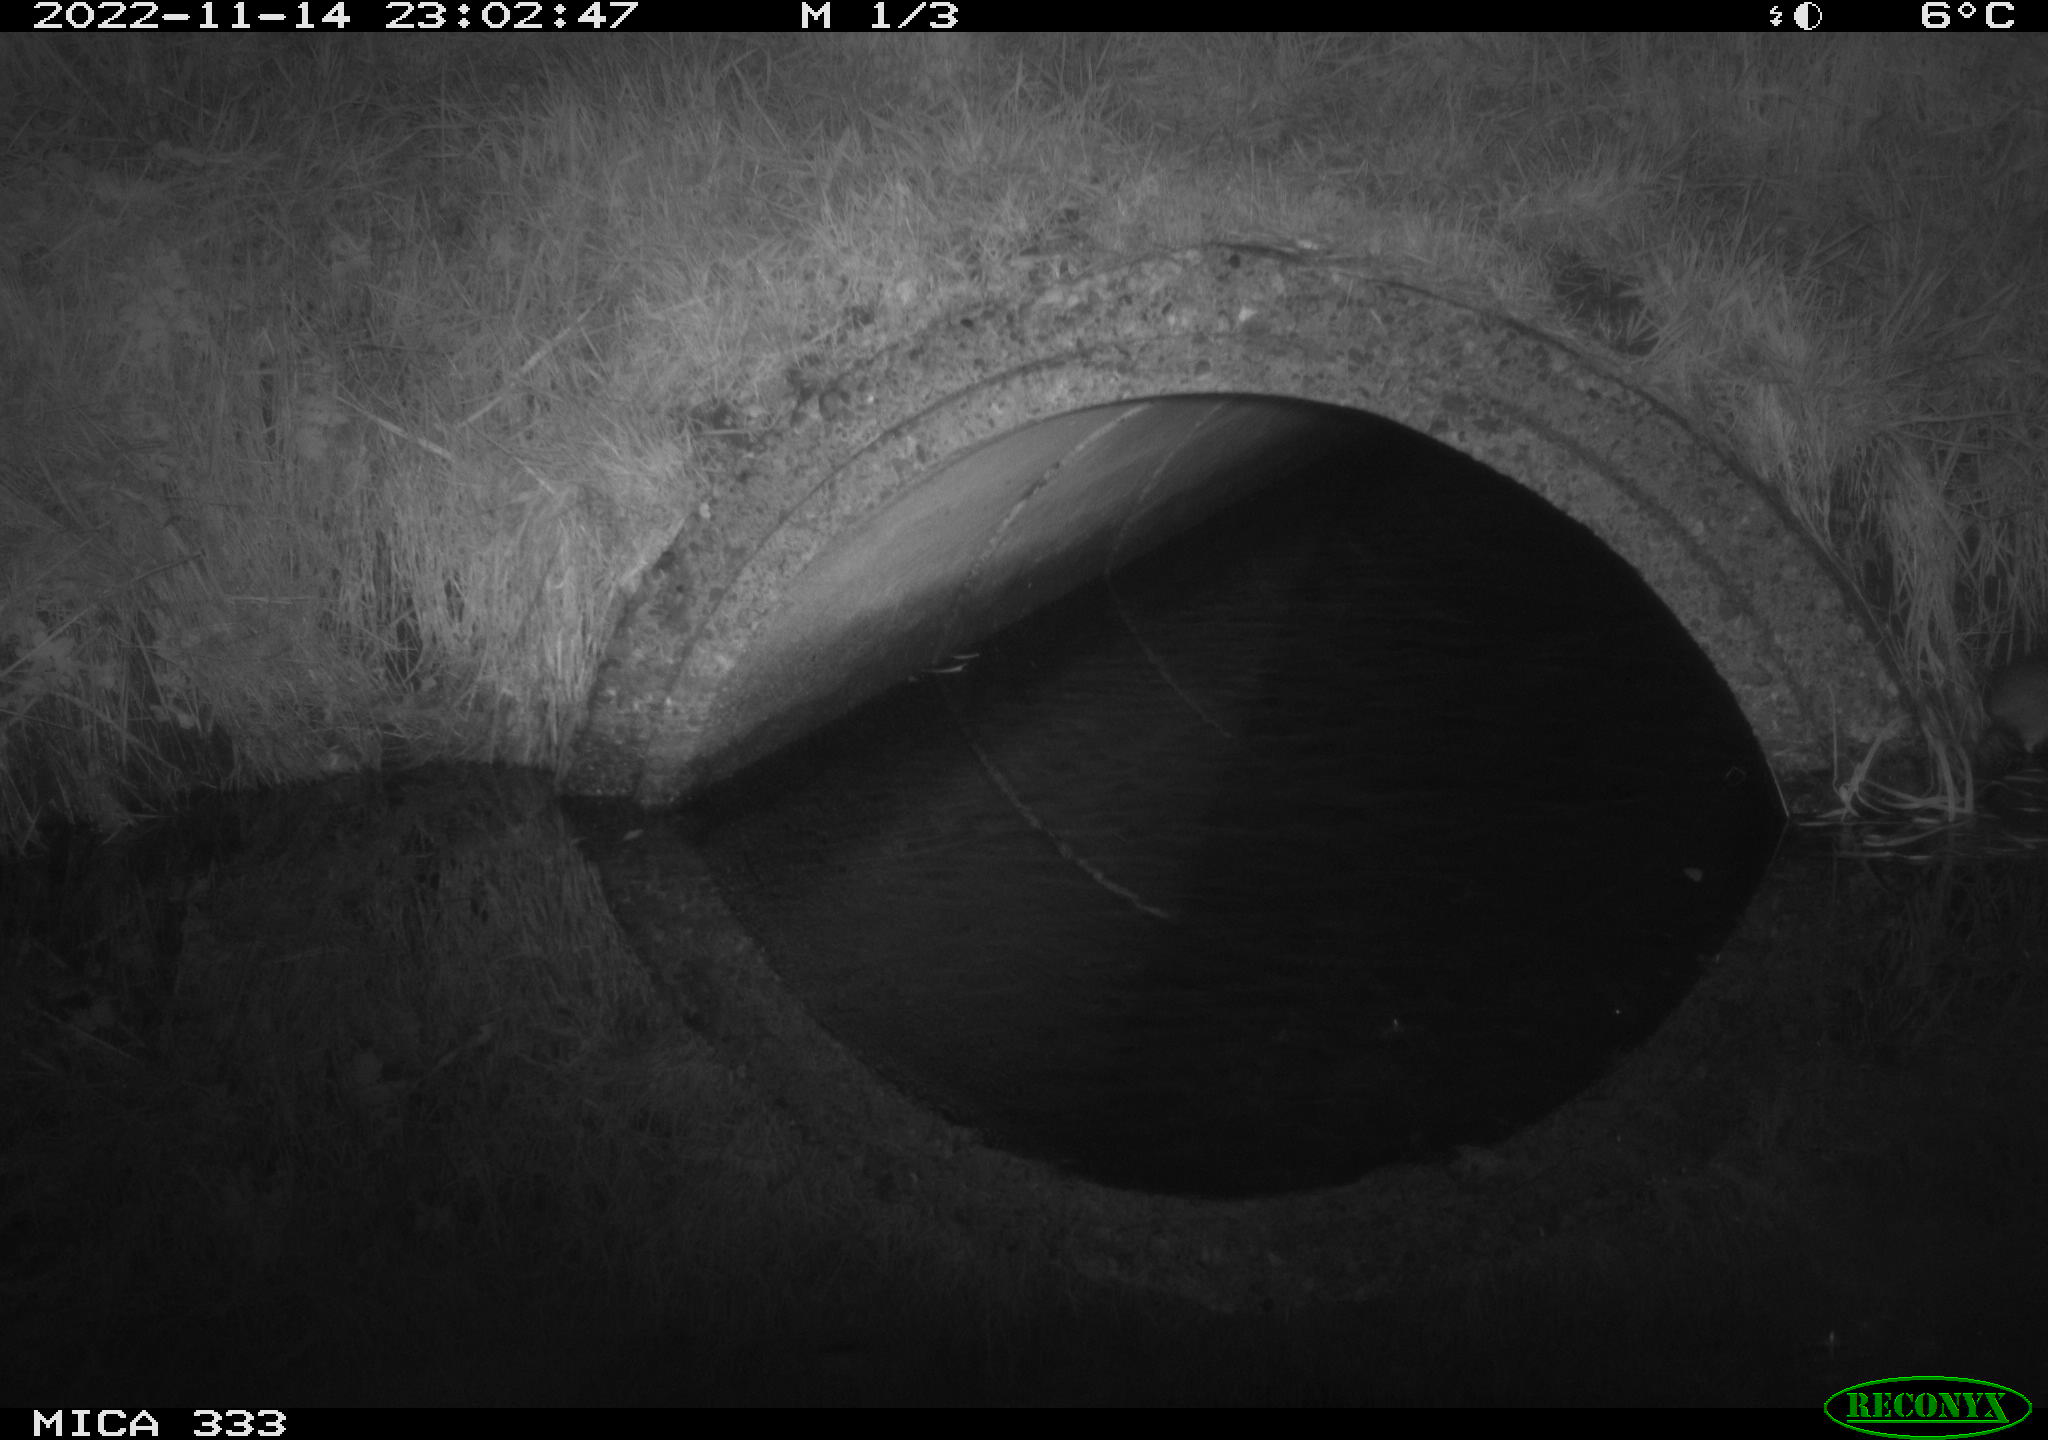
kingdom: Animalia
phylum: Chordata
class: Mammalia
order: Rodentia
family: Muridae
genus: Rattus
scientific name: Rattus norvegicus
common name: Brown rat
